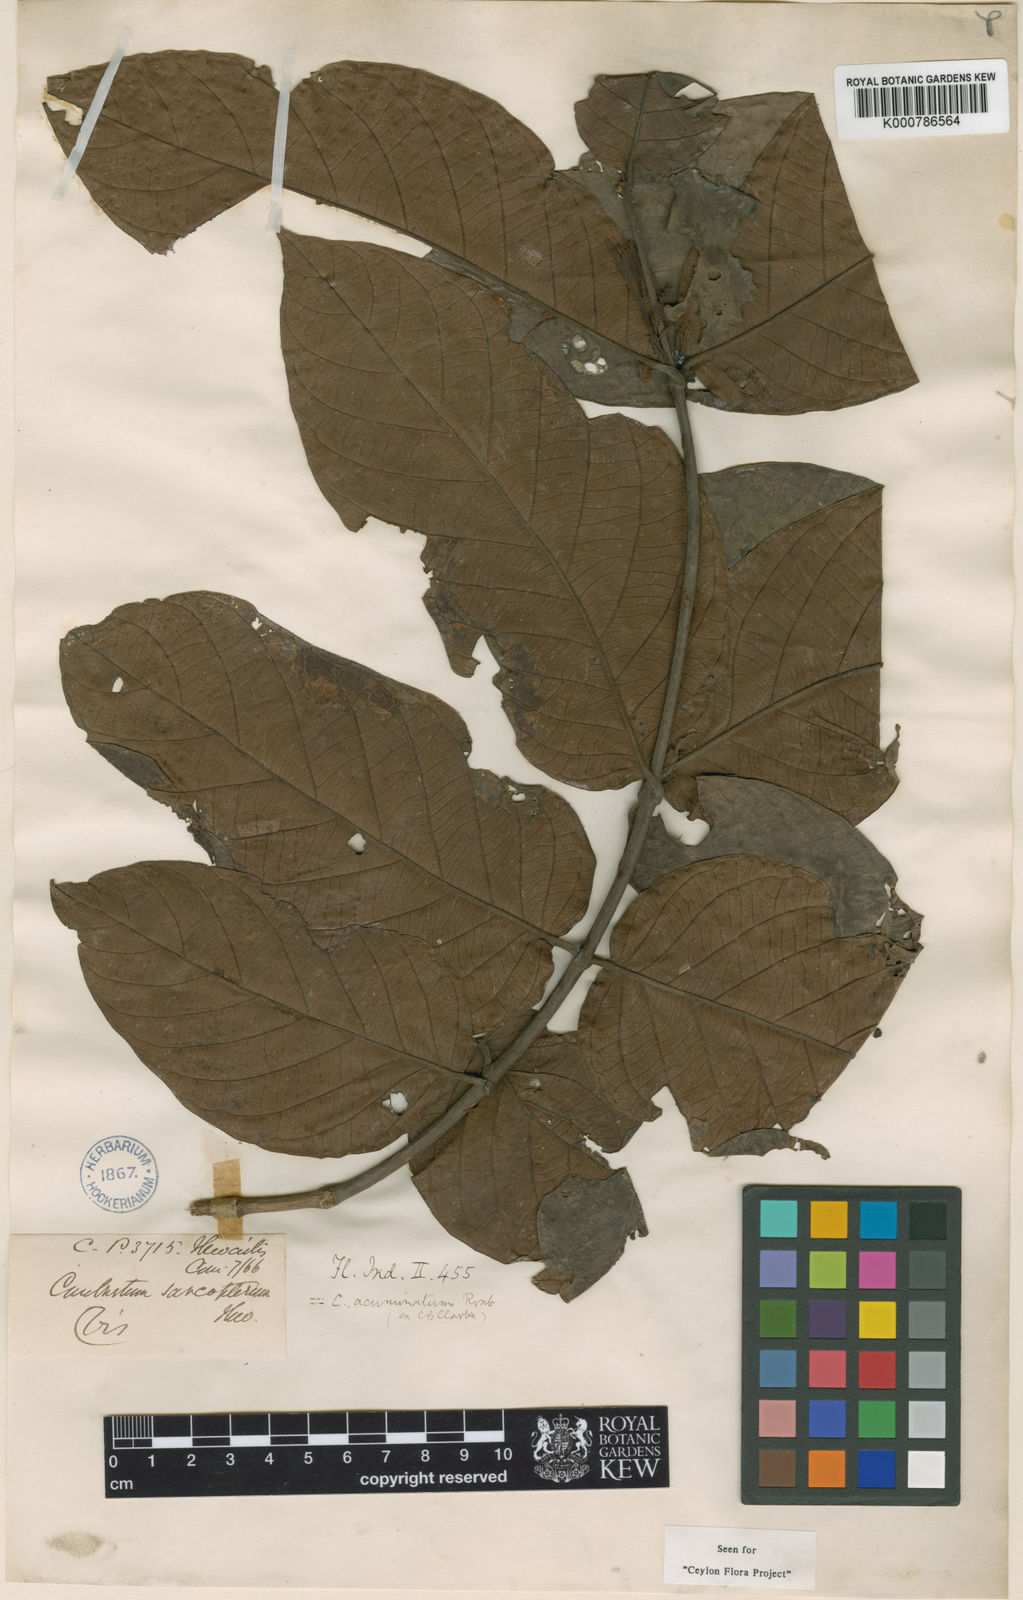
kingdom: Plantae
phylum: Tracheophyta
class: Magnoliopsida
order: Myrtales
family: Combretaceae
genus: Combretum
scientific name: Combretum acuminatum
